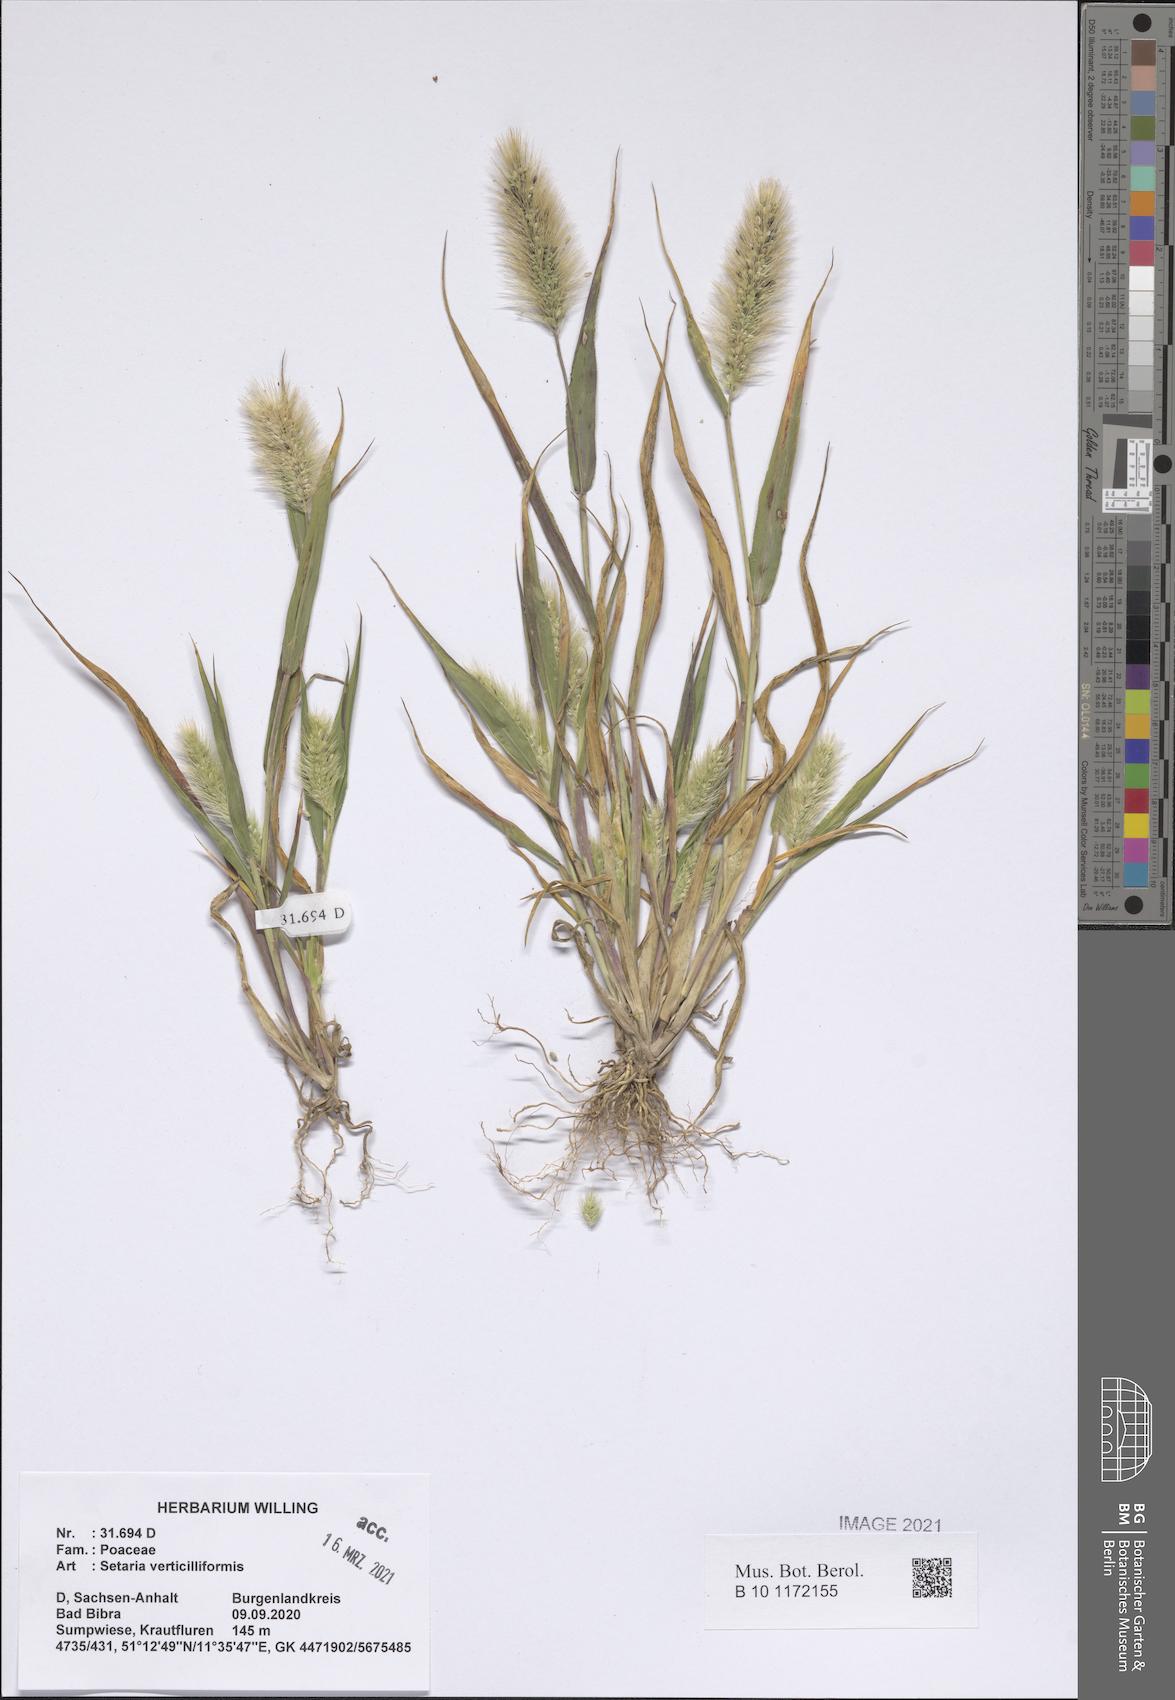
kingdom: Plantae
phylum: Tracheophyta
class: Liliopsida
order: Poales
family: Poaceae
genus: Setaria
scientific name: Setaria verticillata
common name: Hooked bristlegrass
